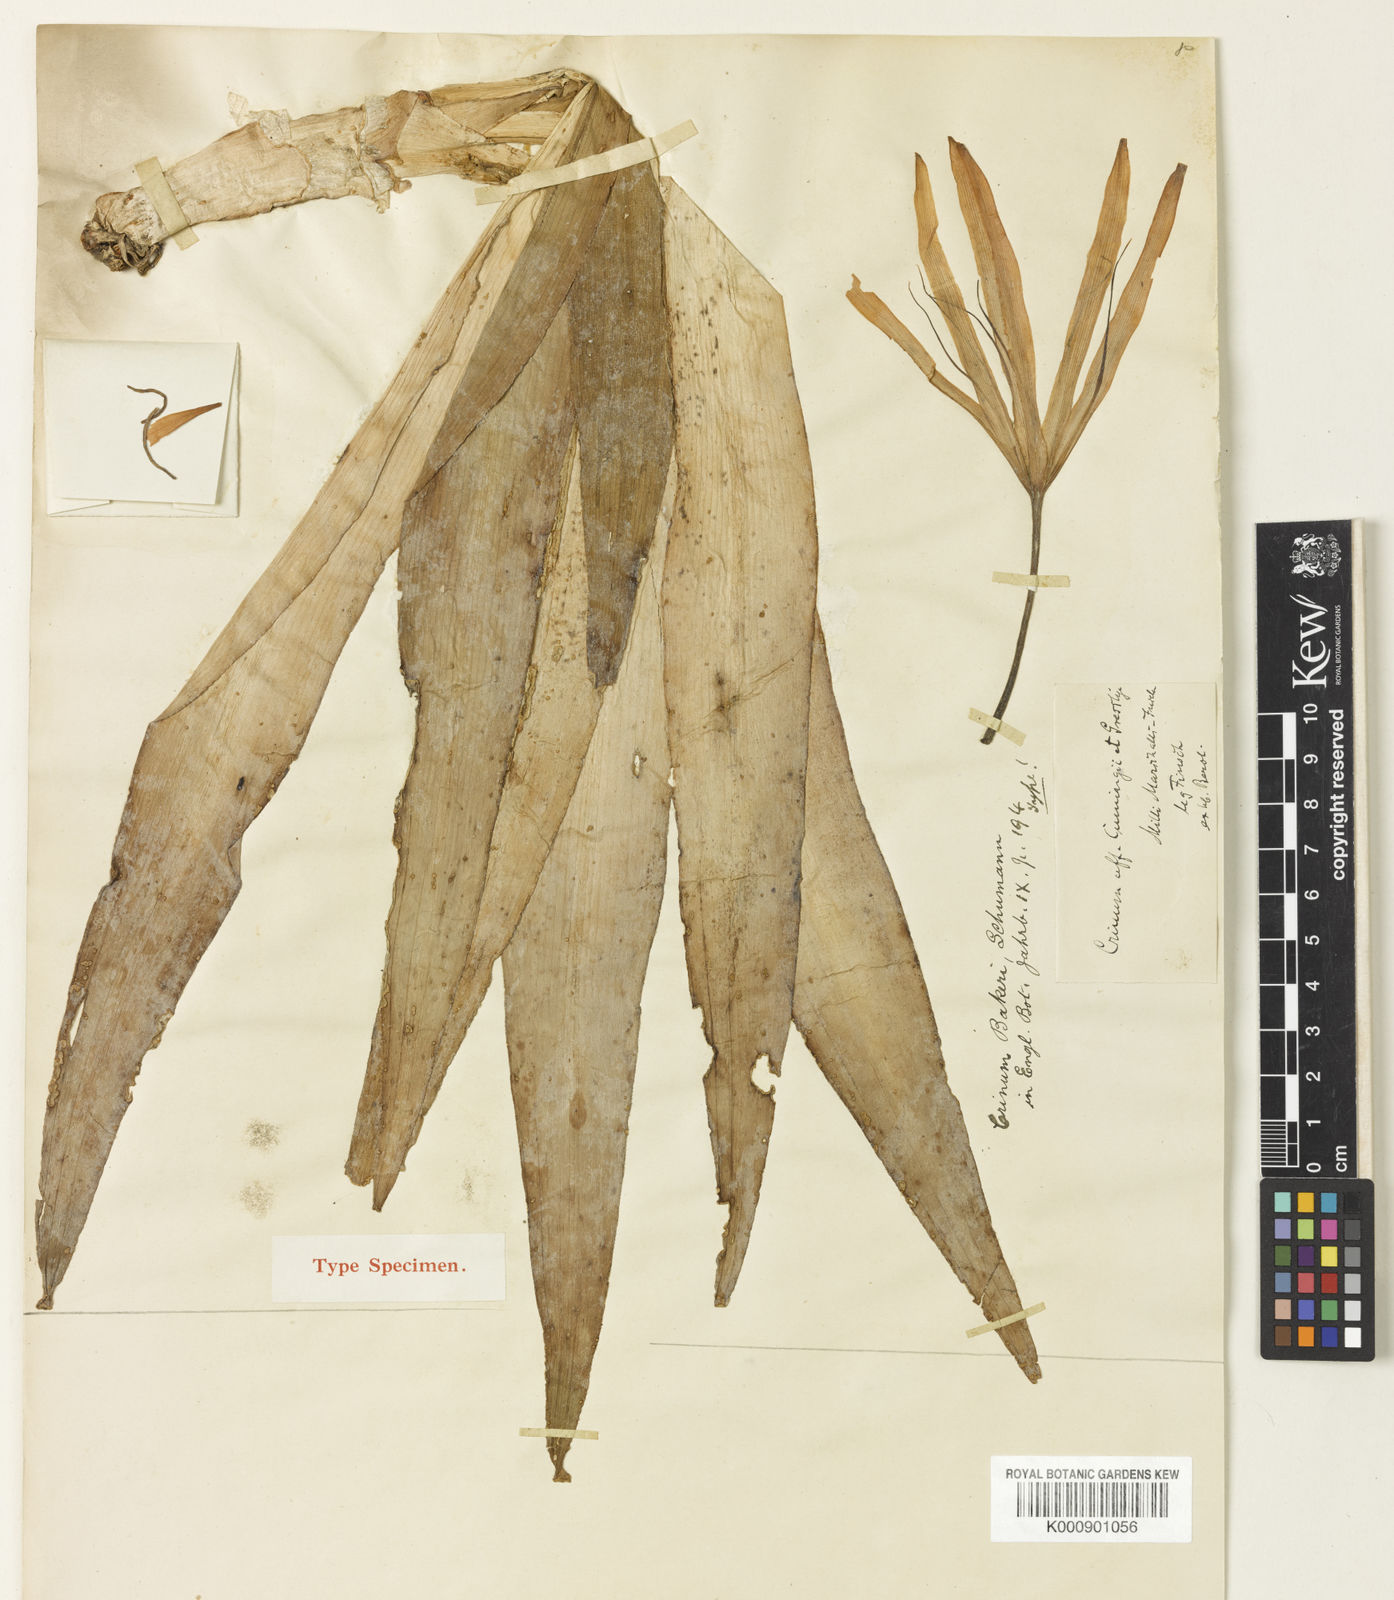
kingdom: Plantae
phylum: Tracheophyta
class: Liliopsida
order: Asparagales
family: Amaryllidaceae
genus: Crinum
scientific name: Crinum bakeri
